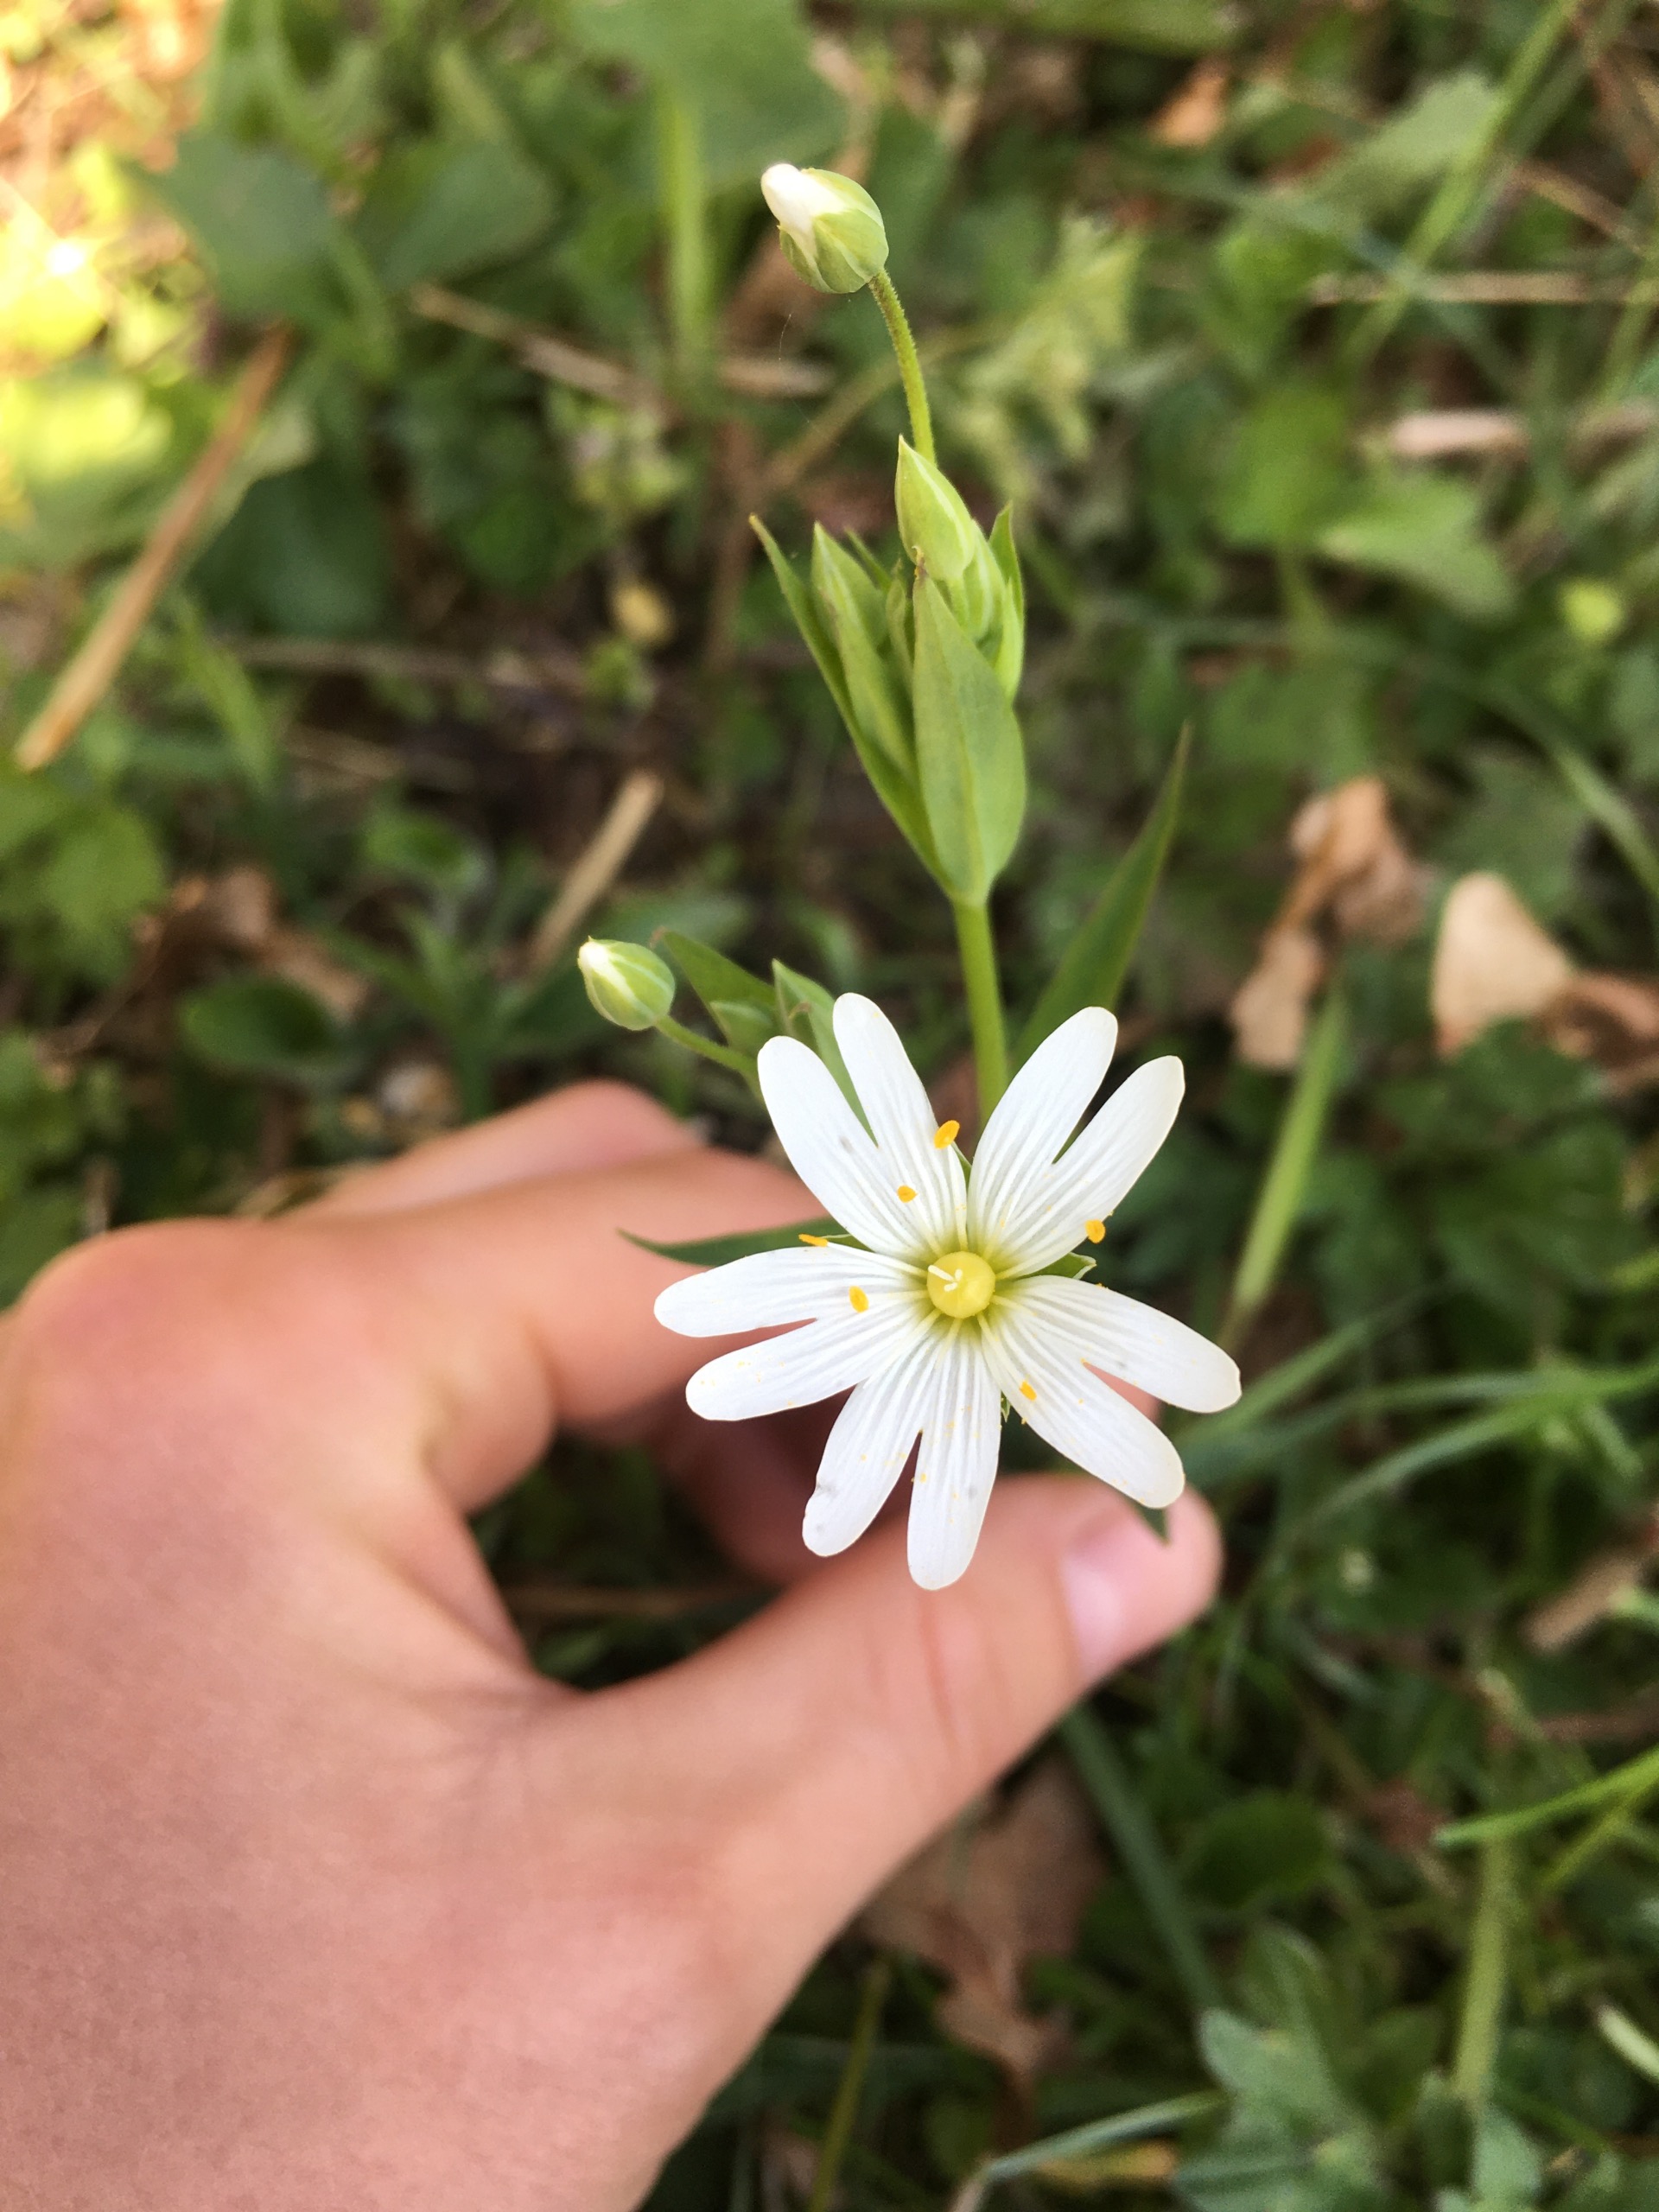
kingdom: Plantae
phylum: Tracheophyta
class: Magnoliopsida
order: Caryophyllales
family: Caryophyllaceae
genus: Rabelera
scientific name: Rabelera holostea
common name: Stor fladstjerne
